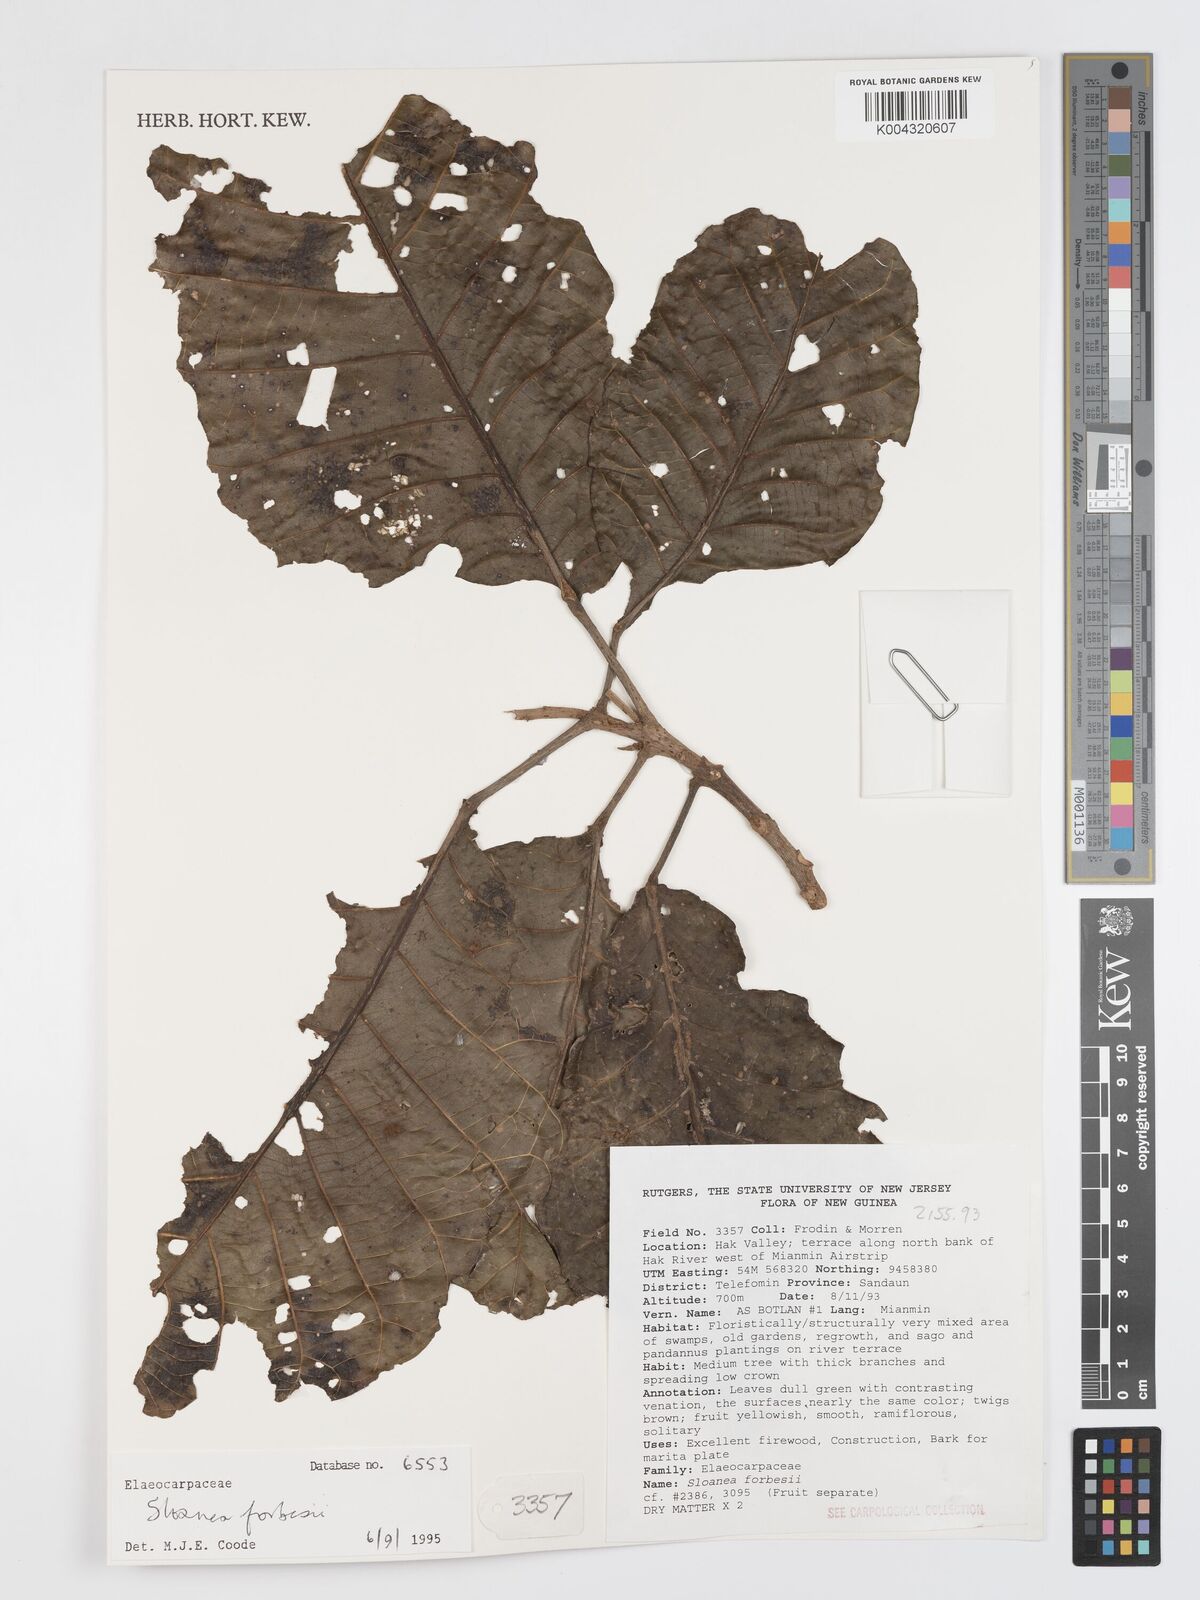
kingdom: Plantae
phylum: Tracheophyta
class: Magnoliopsida
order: Oxalidales
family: Elaeocarpaceae
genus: Sloanea
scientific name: Sloanea forbesii
